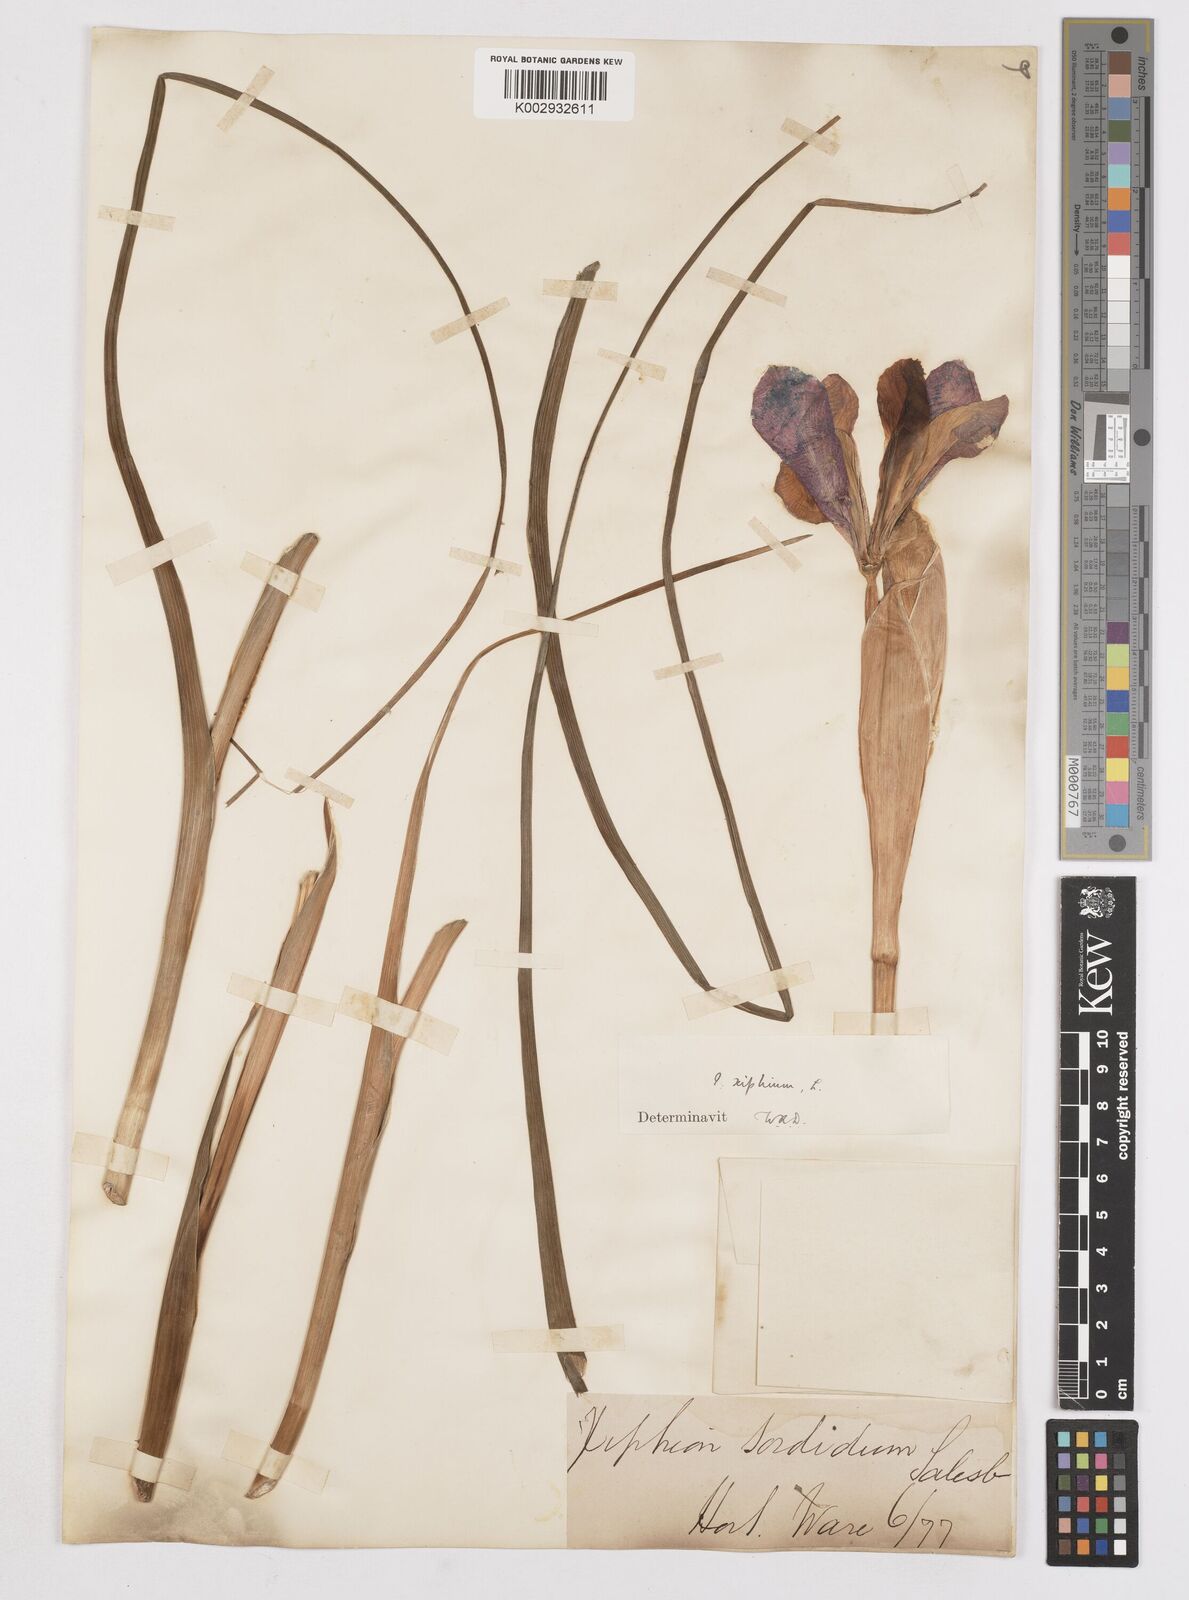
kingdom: Plantae
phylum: Tracheophyta
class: Liliopsida
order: Asparagales
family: Iridaceae
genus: Iris
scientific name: Iris xiphium
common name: Spanish iris
